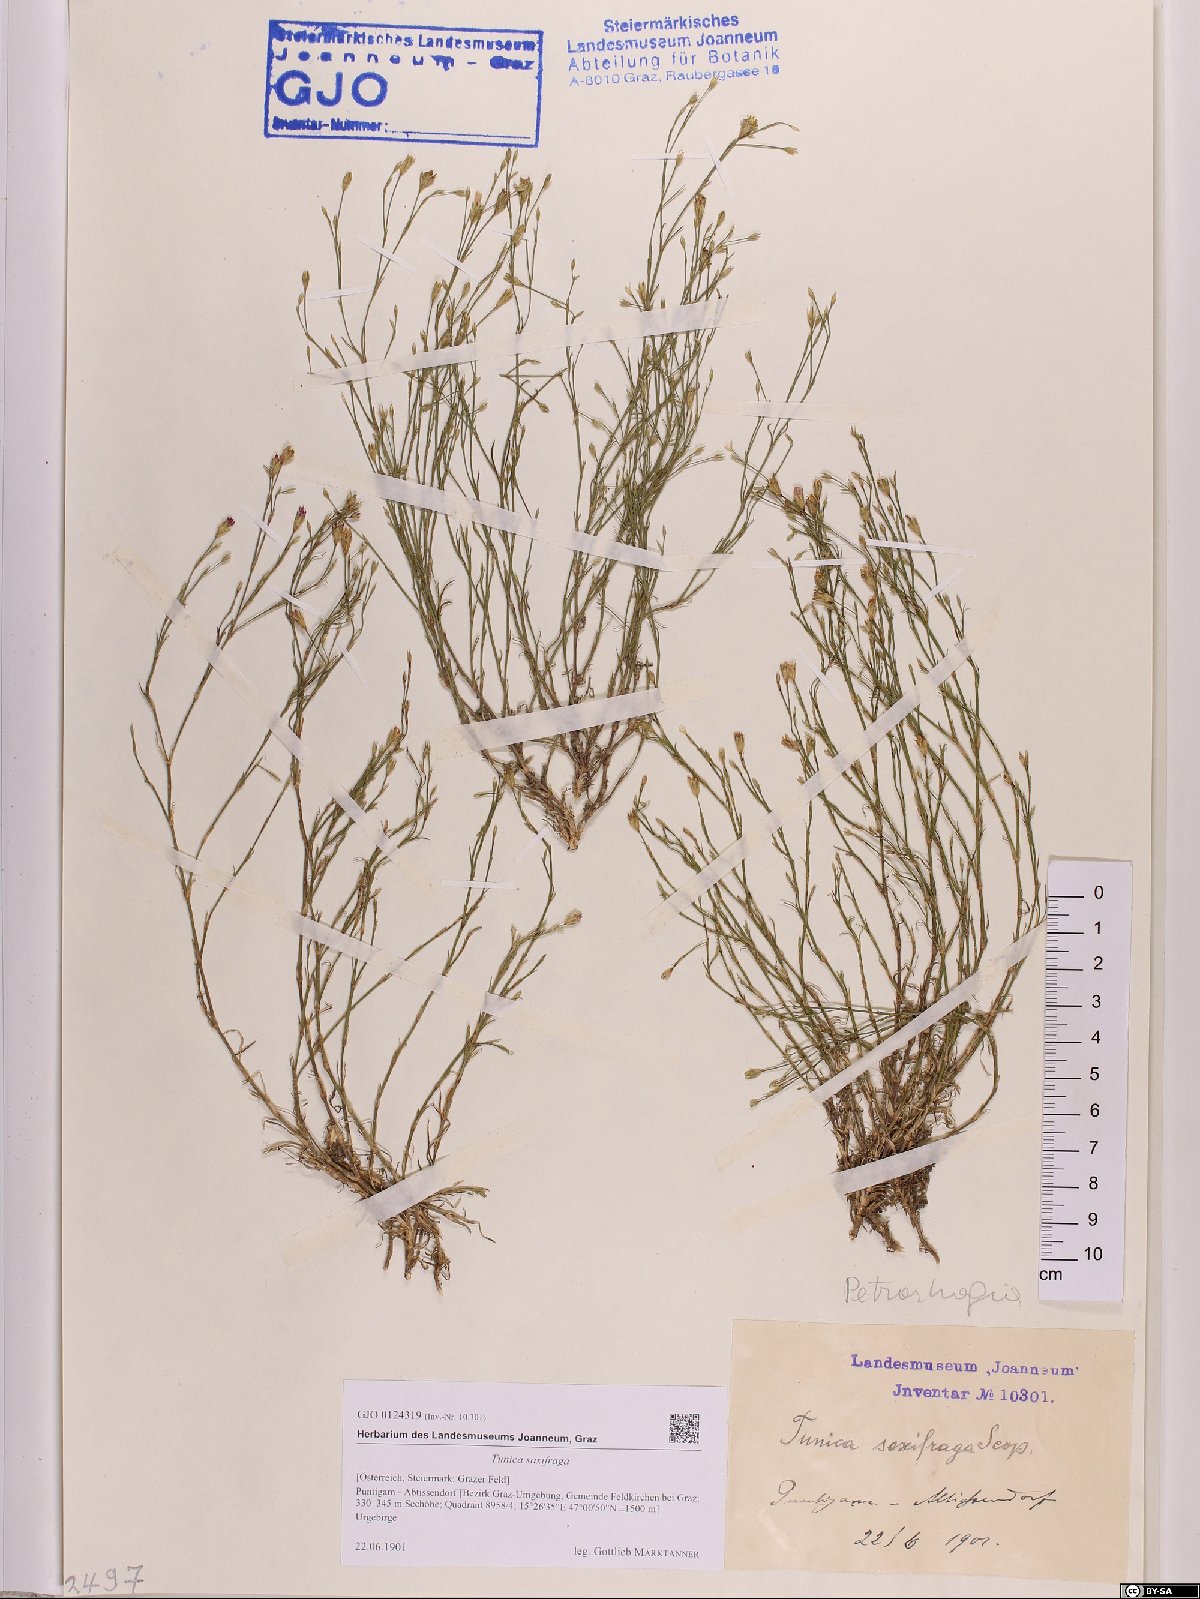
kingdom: Plantae
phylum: Tracheophyta
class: Magnoliopsida
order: Caryophyllales
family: Caryophyllaceae
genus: Petrorhagia
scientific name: Petrorhagia saxifraga
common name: Tunicflower
